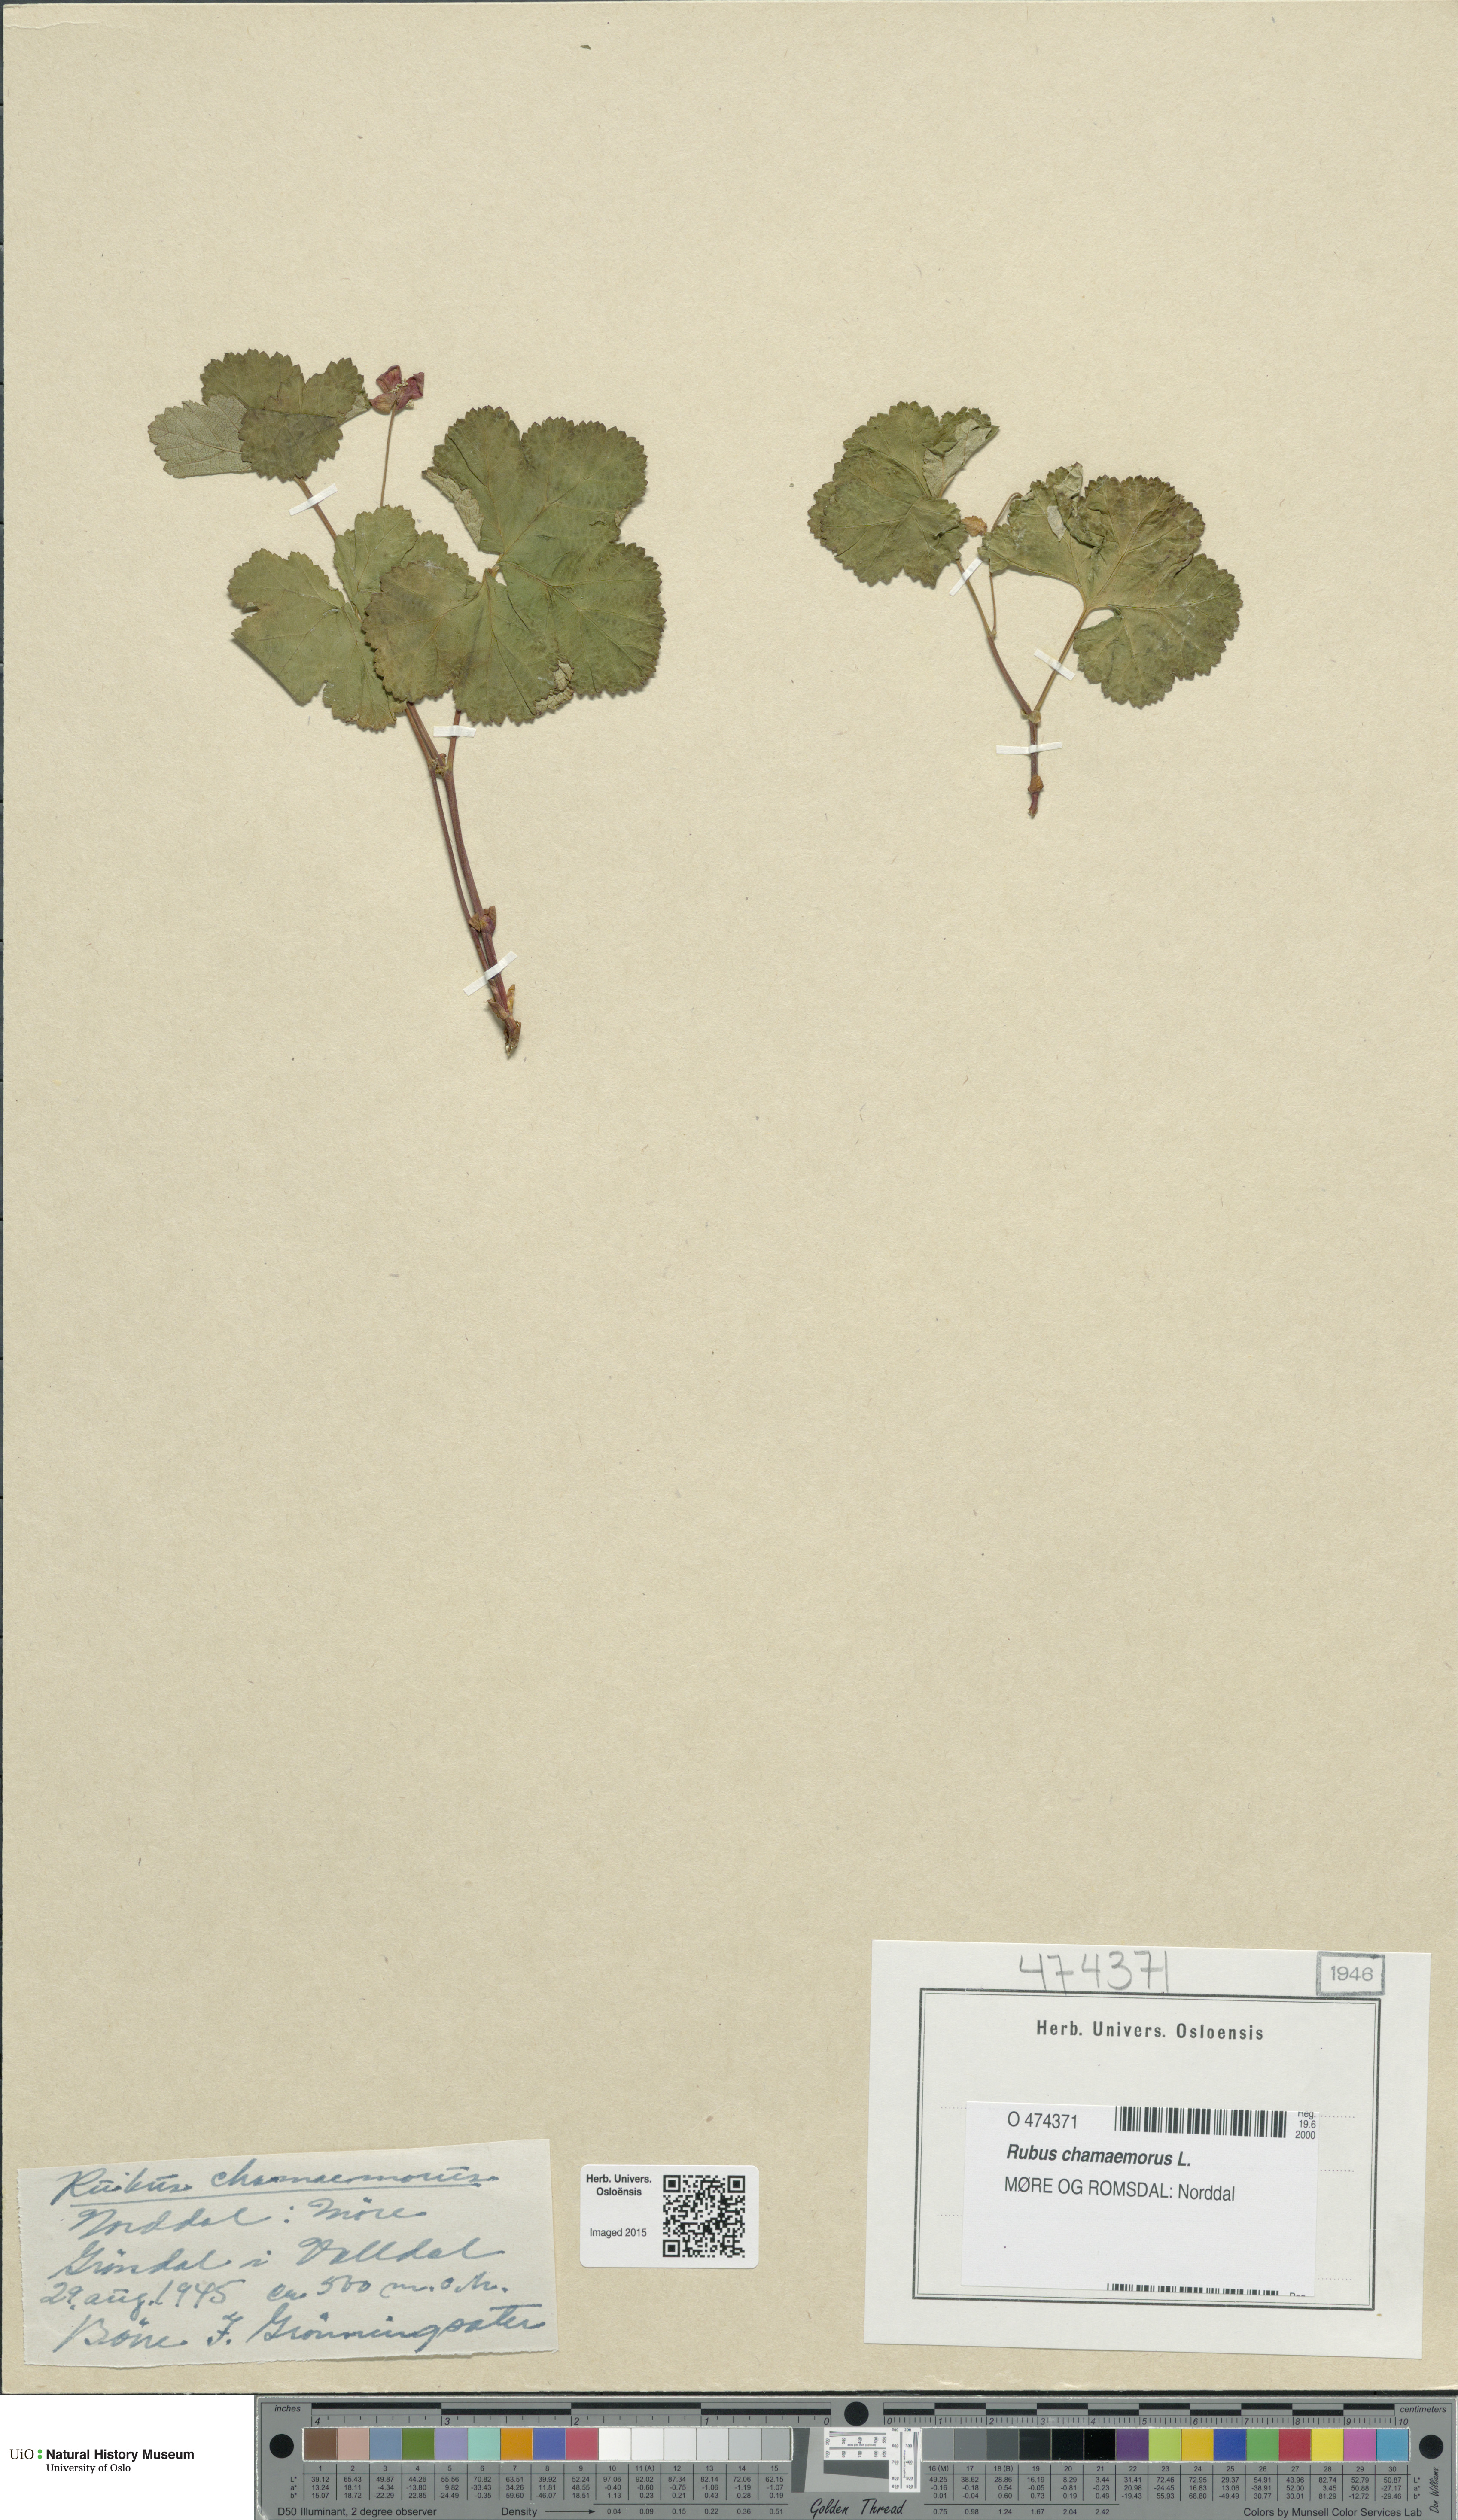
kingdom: Plantae
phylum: Tracheophyta
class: Magnoliopsida
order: Rosales
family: Rosaceae
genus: Rubus
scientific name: Rubus chamaemorus
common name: Cloudberry
